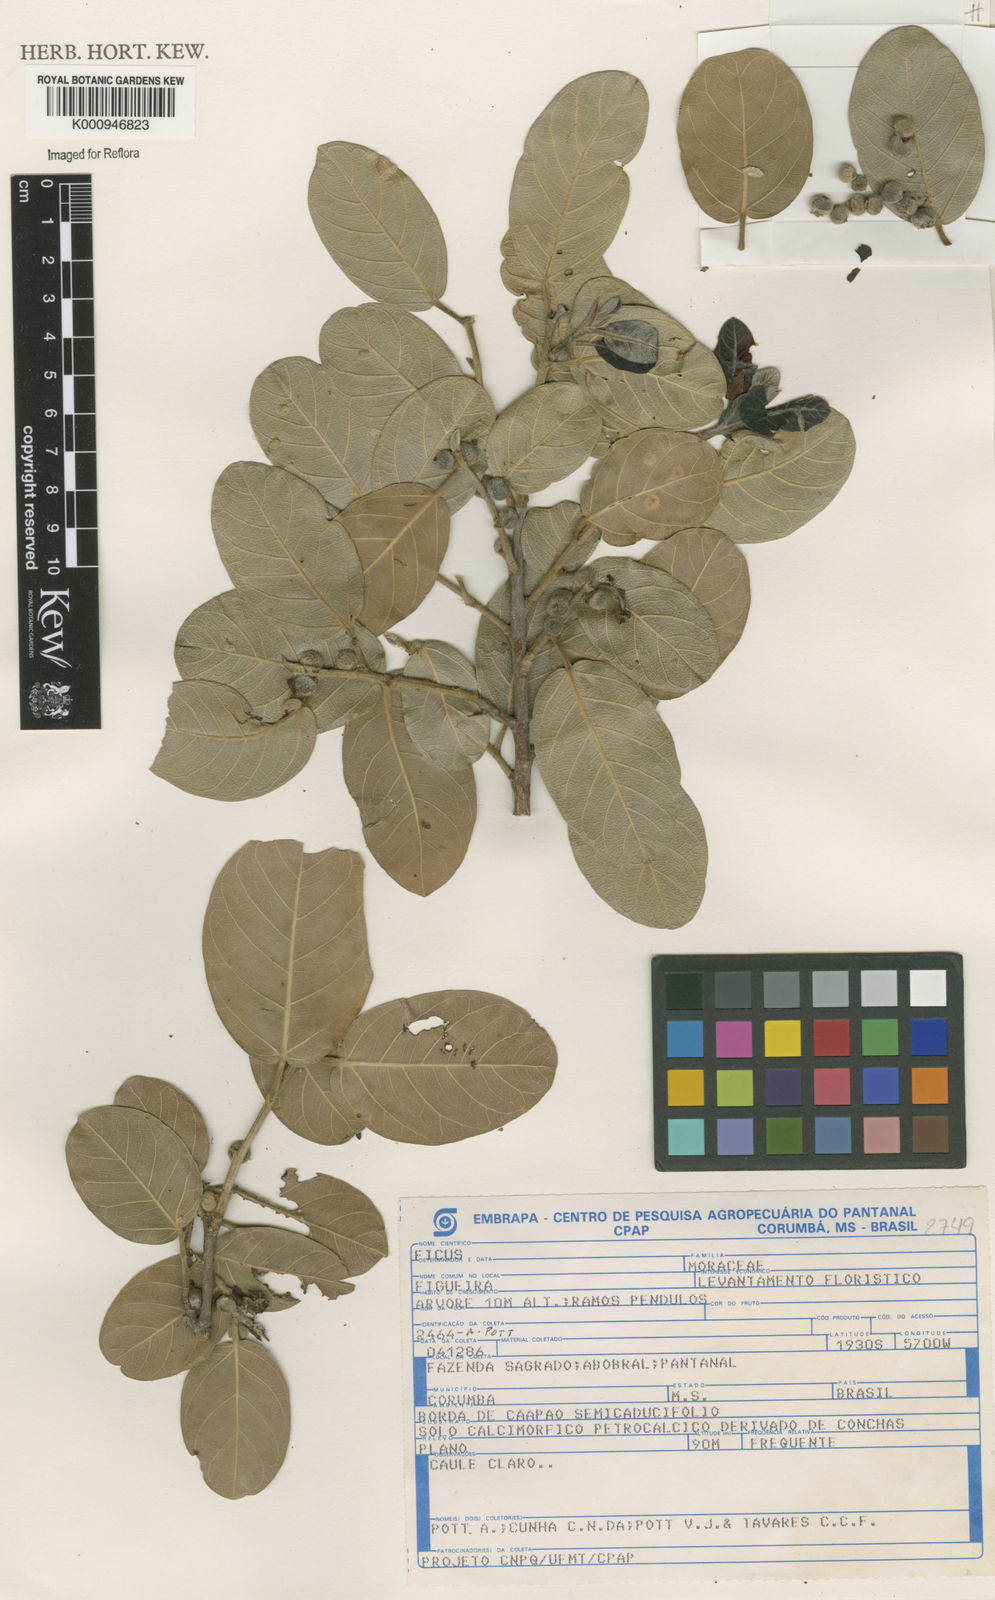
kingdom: Plantae
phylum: Tracheophyta
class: Magnoliopsida
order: Rosales
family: Moraceae
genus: Ficus
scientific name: Ficus
